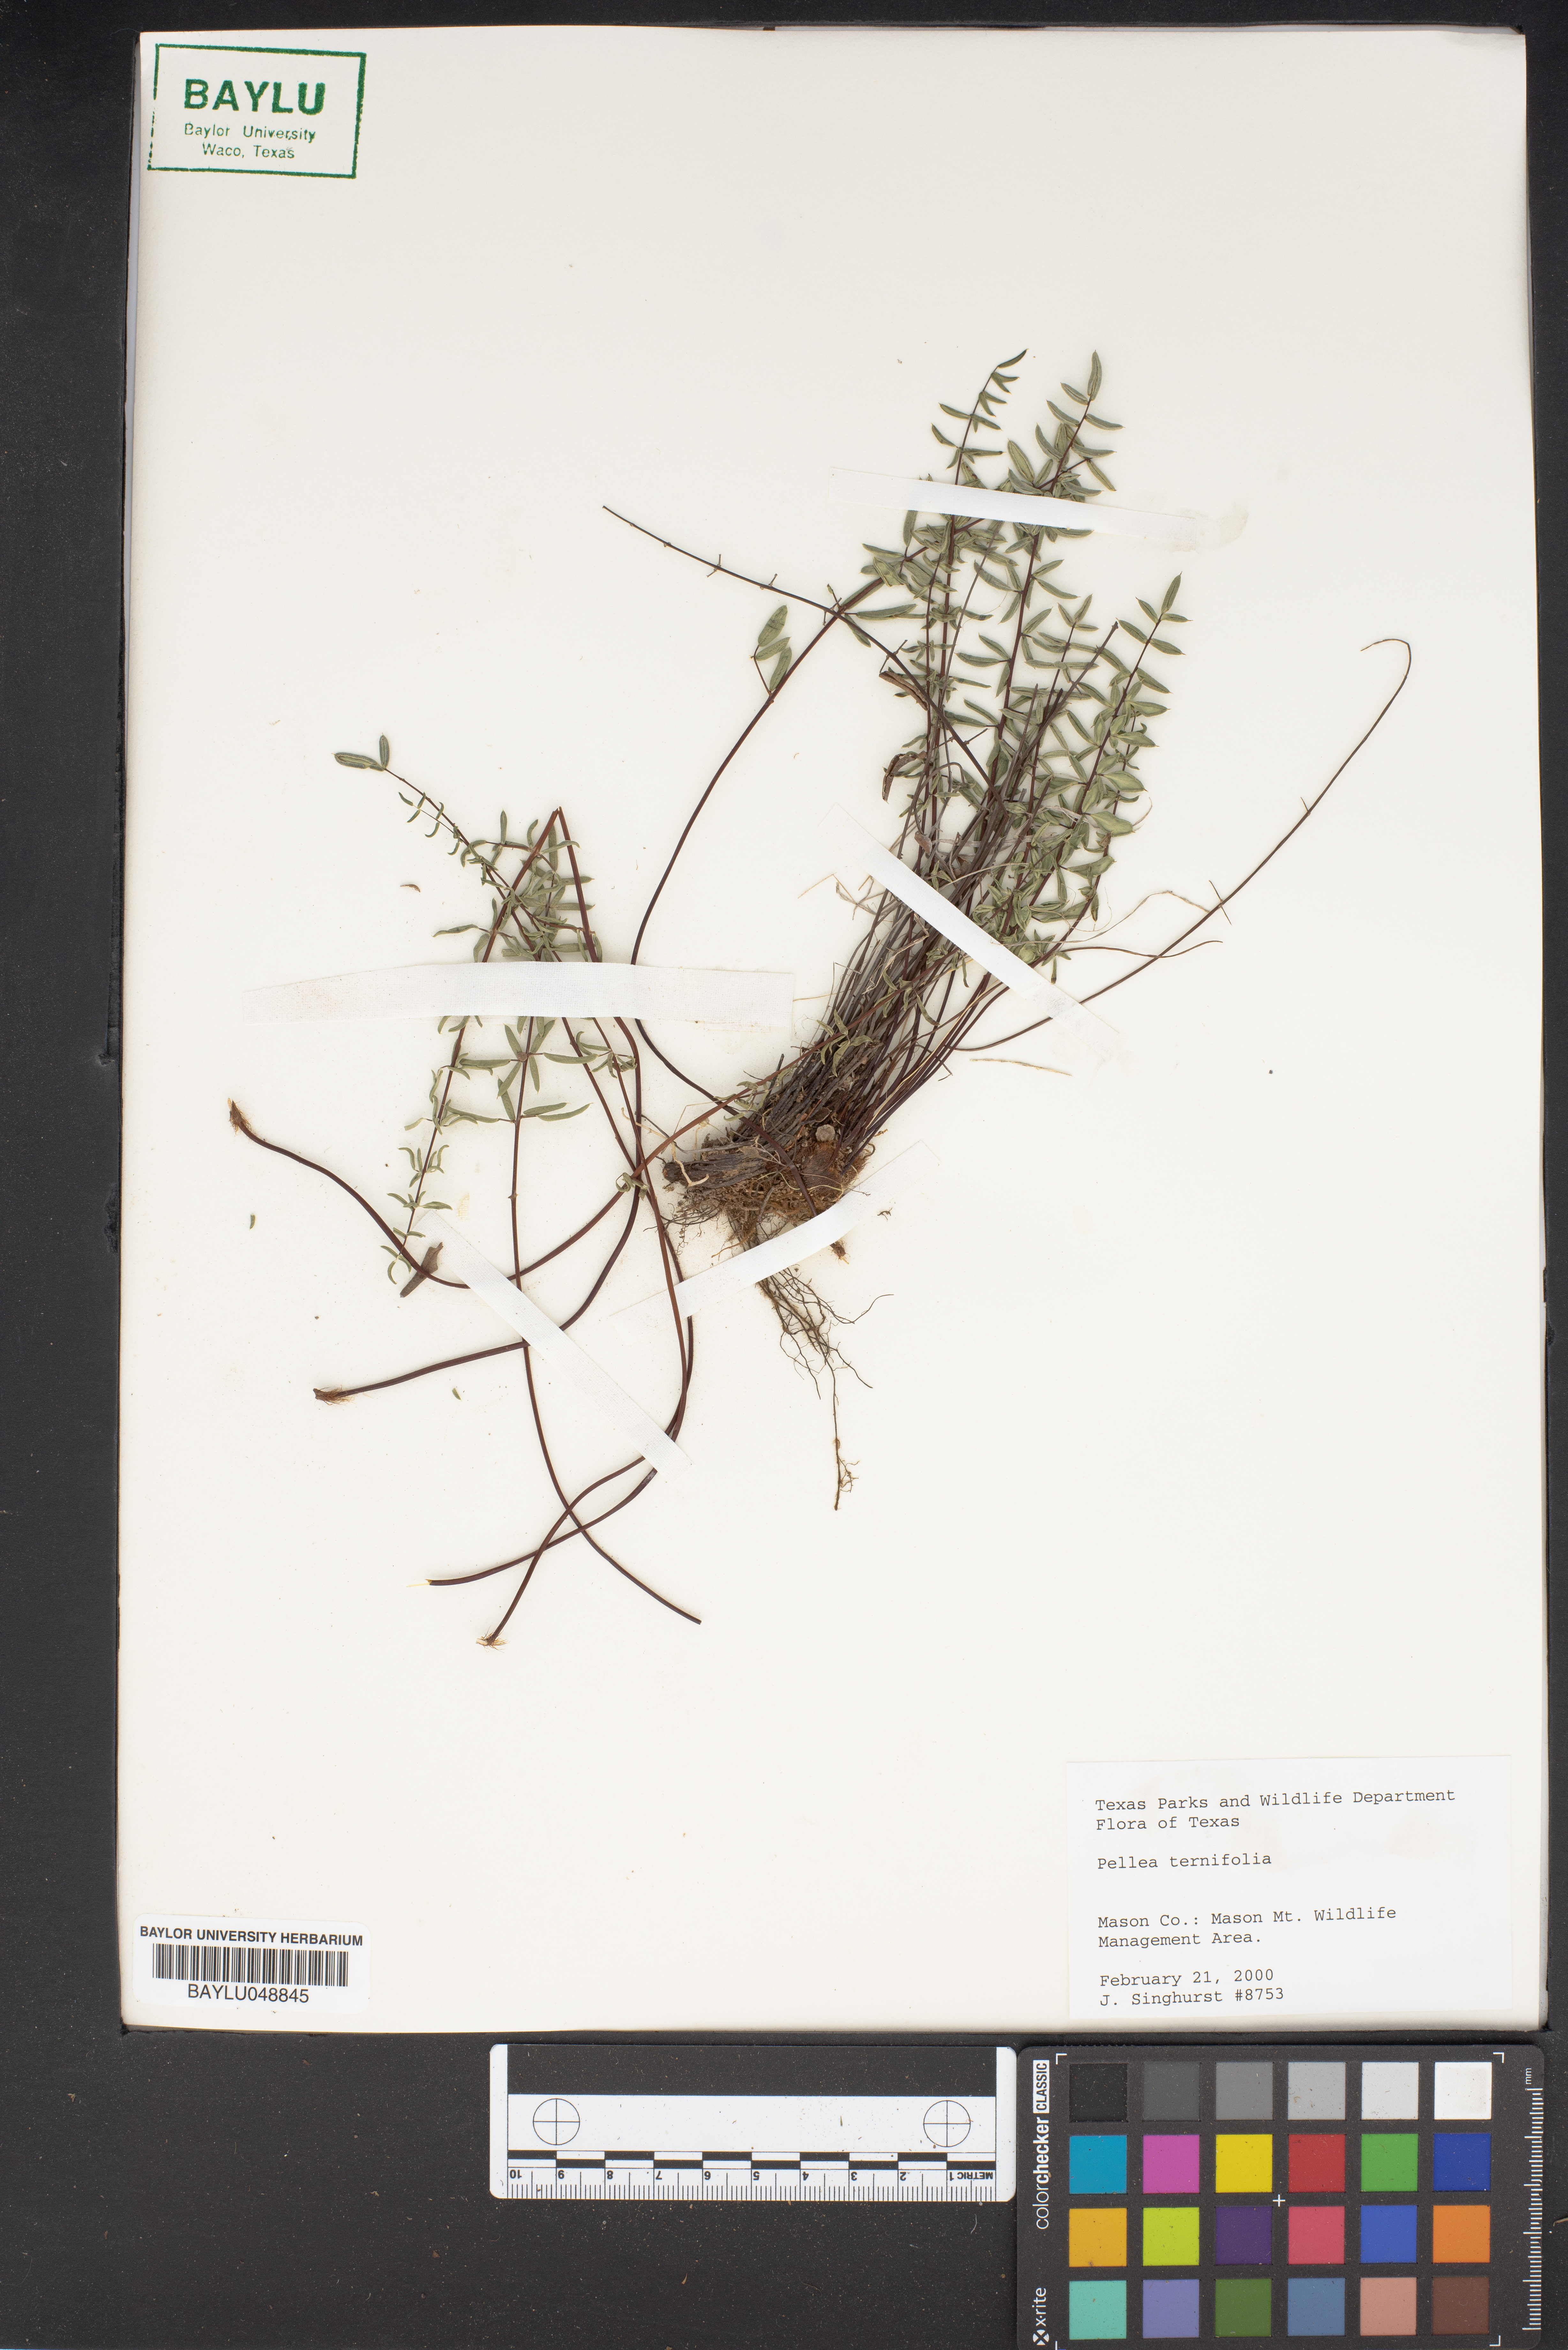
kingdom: Plantae
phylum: Tracheophyta
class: Polypodiopsida
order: Polypodiales
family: Pteridaceae
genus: Pellaea
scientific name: Pellaea ternifolia
